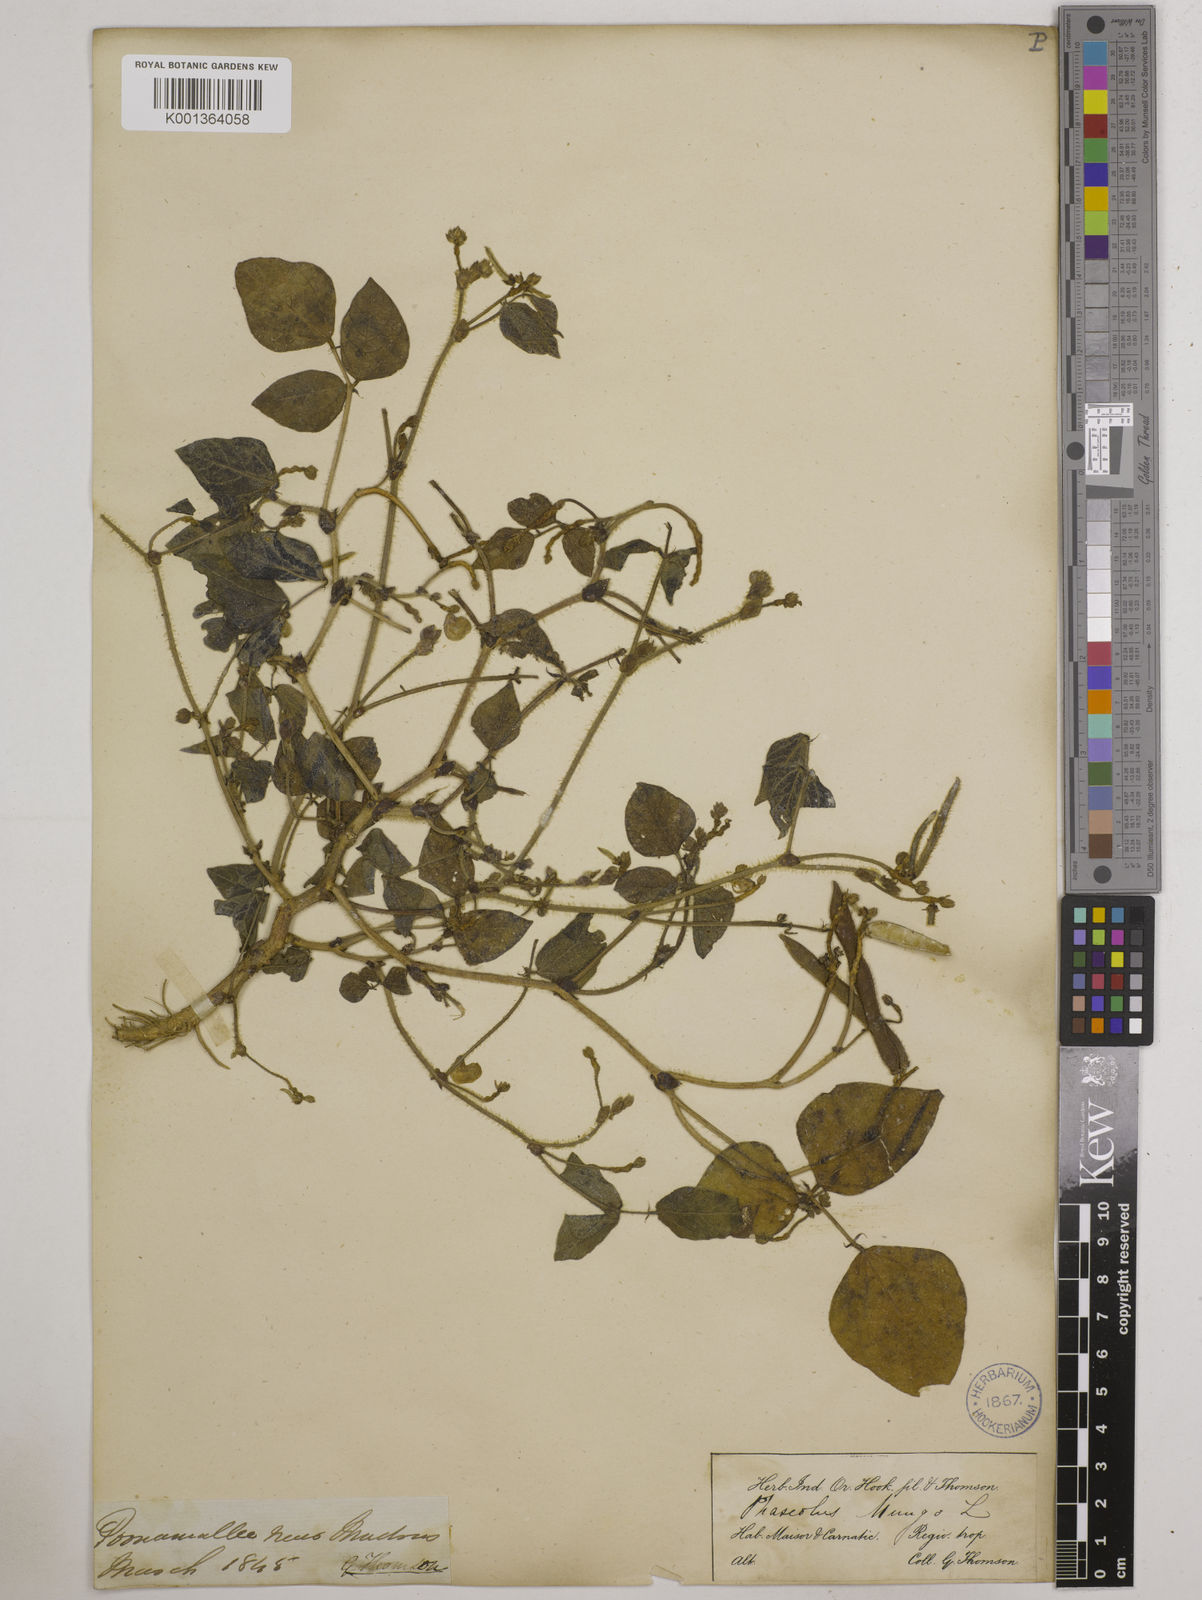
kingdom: Plantae
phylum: Tracheophyta
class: Magnoliopsida
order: Fabales
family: Fabaceae
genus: Vigna
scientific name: Vigna radiata
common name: Mung-bean
